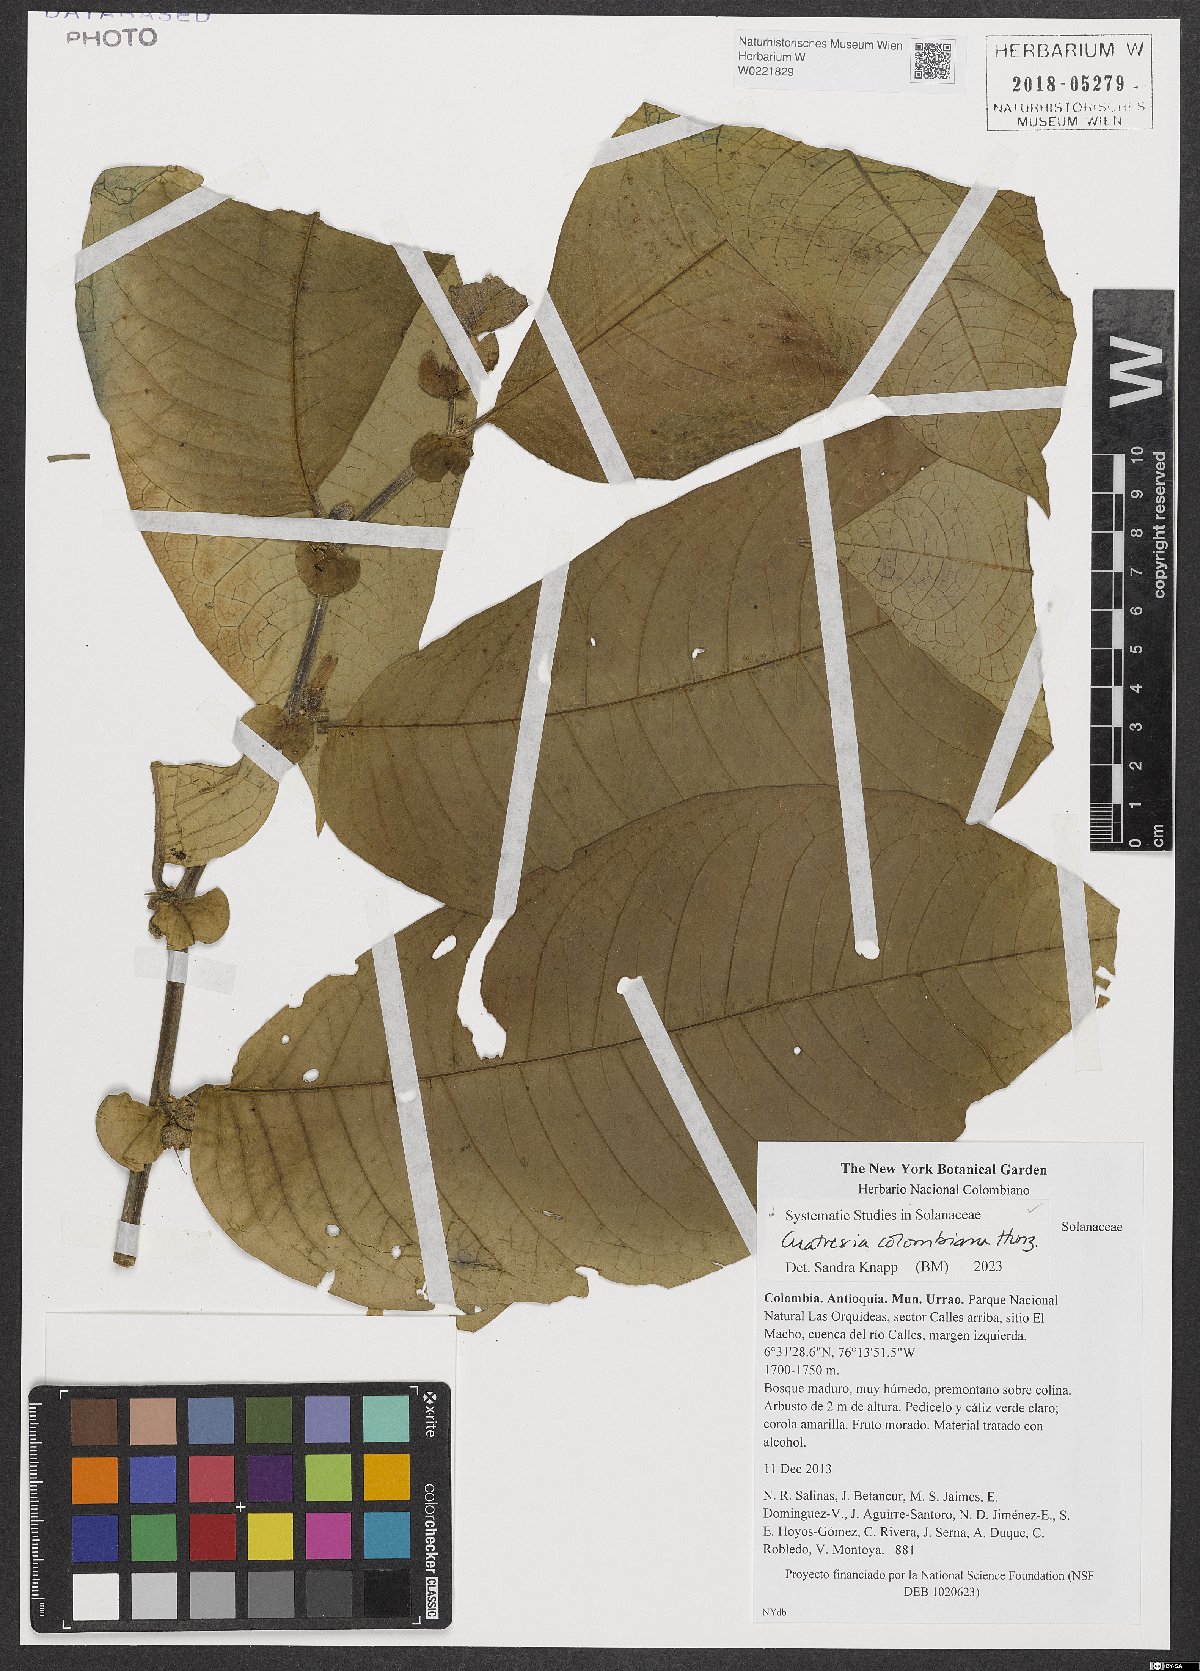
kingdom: Plantae
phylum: Tracheophyta
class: Magnoliopsida
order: Solanales
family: Solanaceae
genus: Cuatresia
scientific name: Cuatresia colombiana
